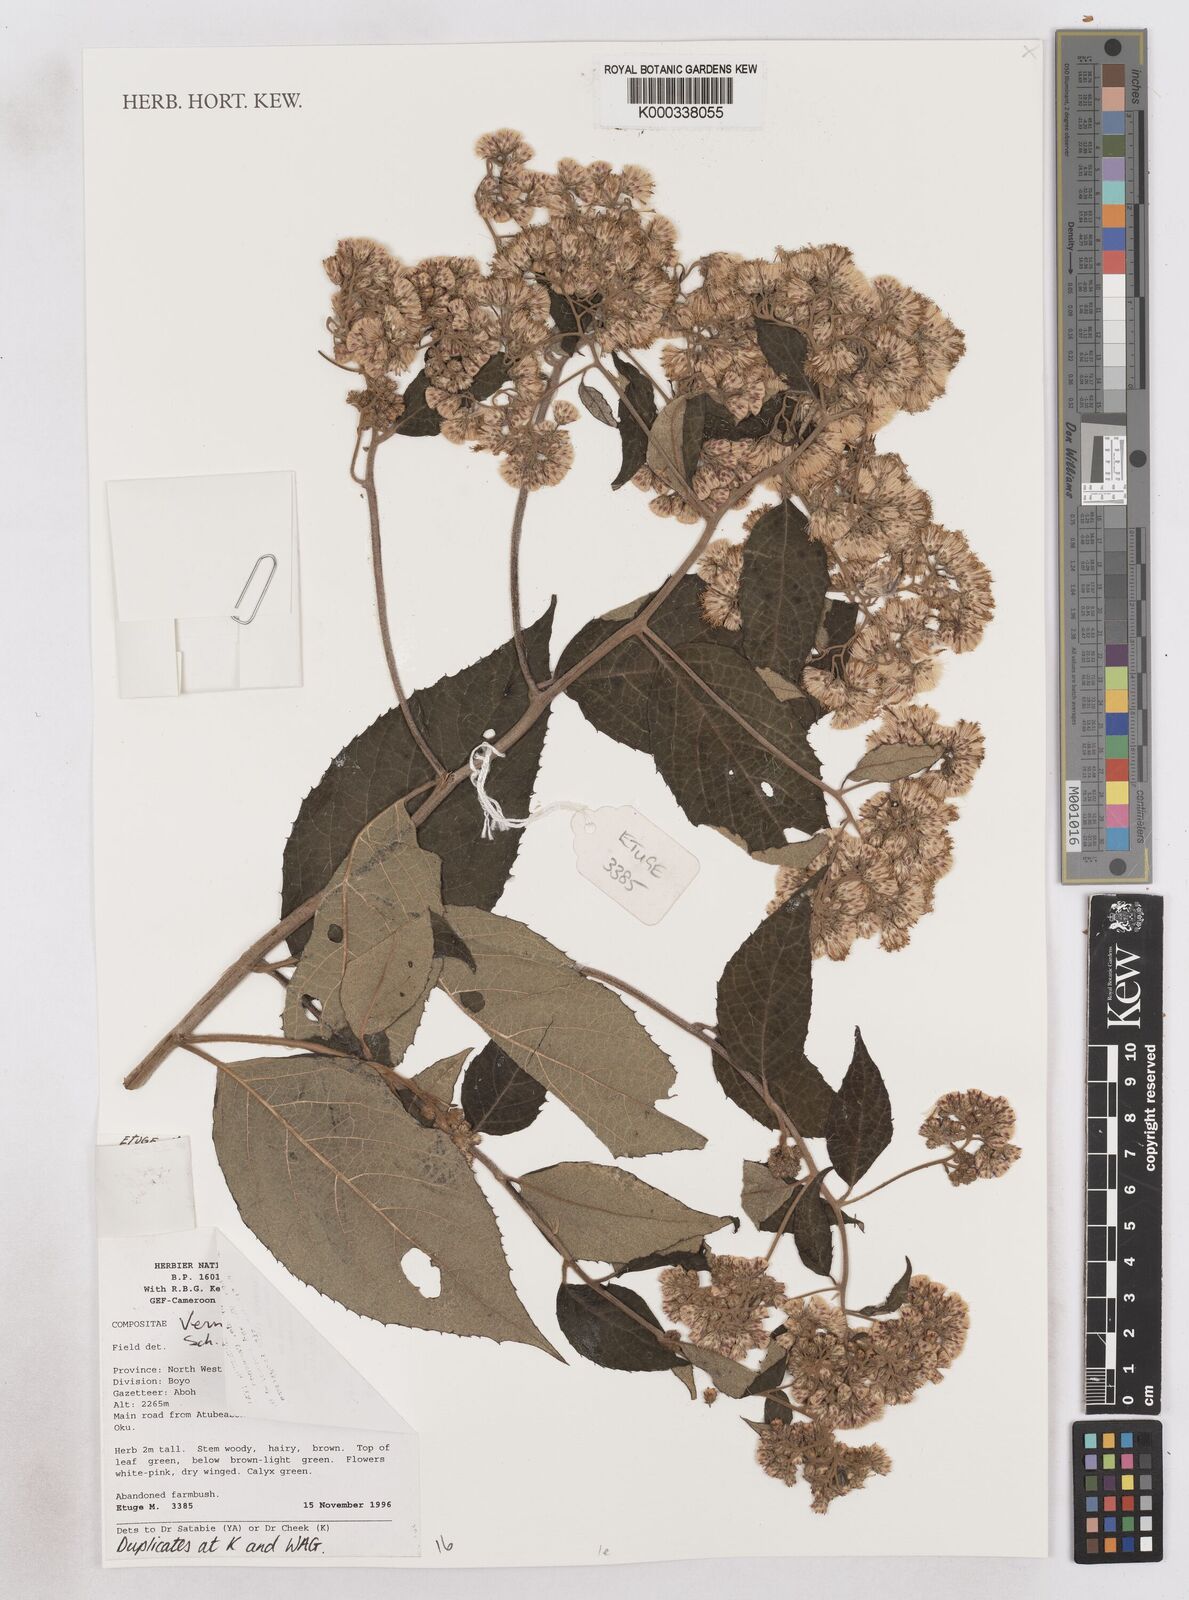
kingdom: Plantae
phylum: Tracheophyta
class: Magnoliopsida
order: Asterales
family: Asteraceae
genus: Vernonia
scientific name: Vernonia holstii
